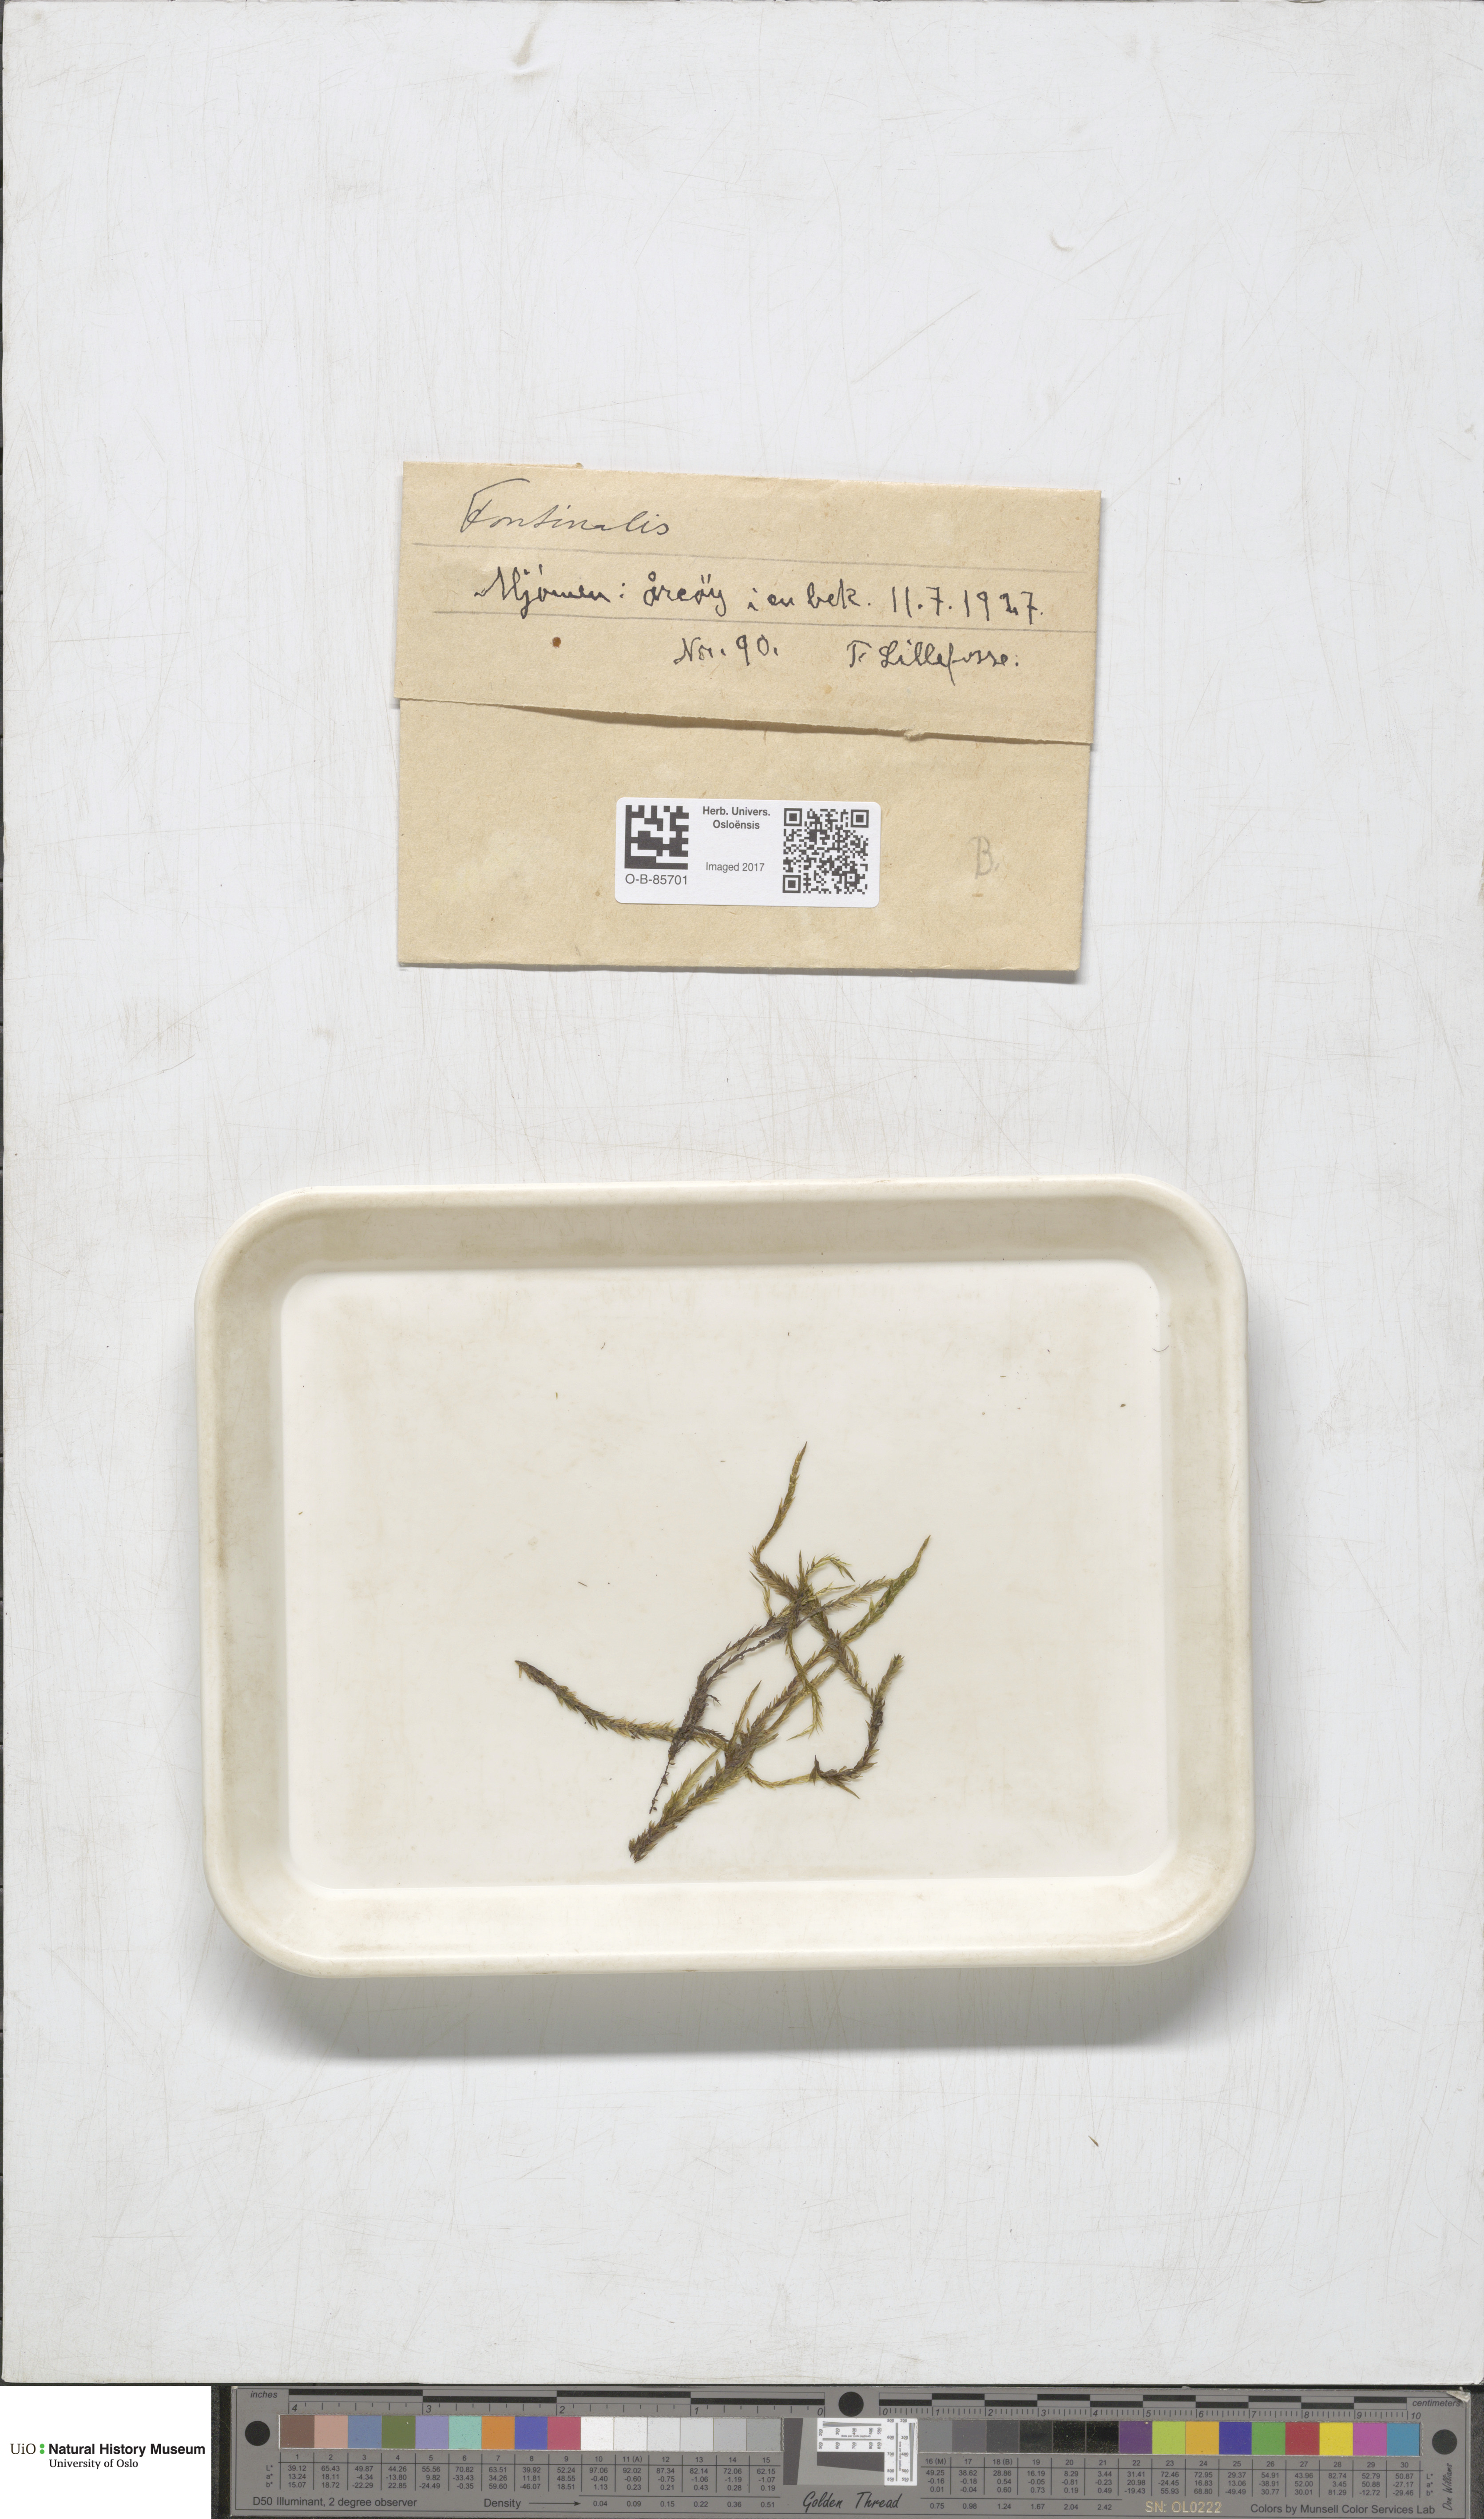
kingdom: Plantae
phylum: Bryophyta
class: Bryopsida
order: Hypnales
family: Fontinalaceae
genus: Fontinalis
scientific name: Fontinalis
